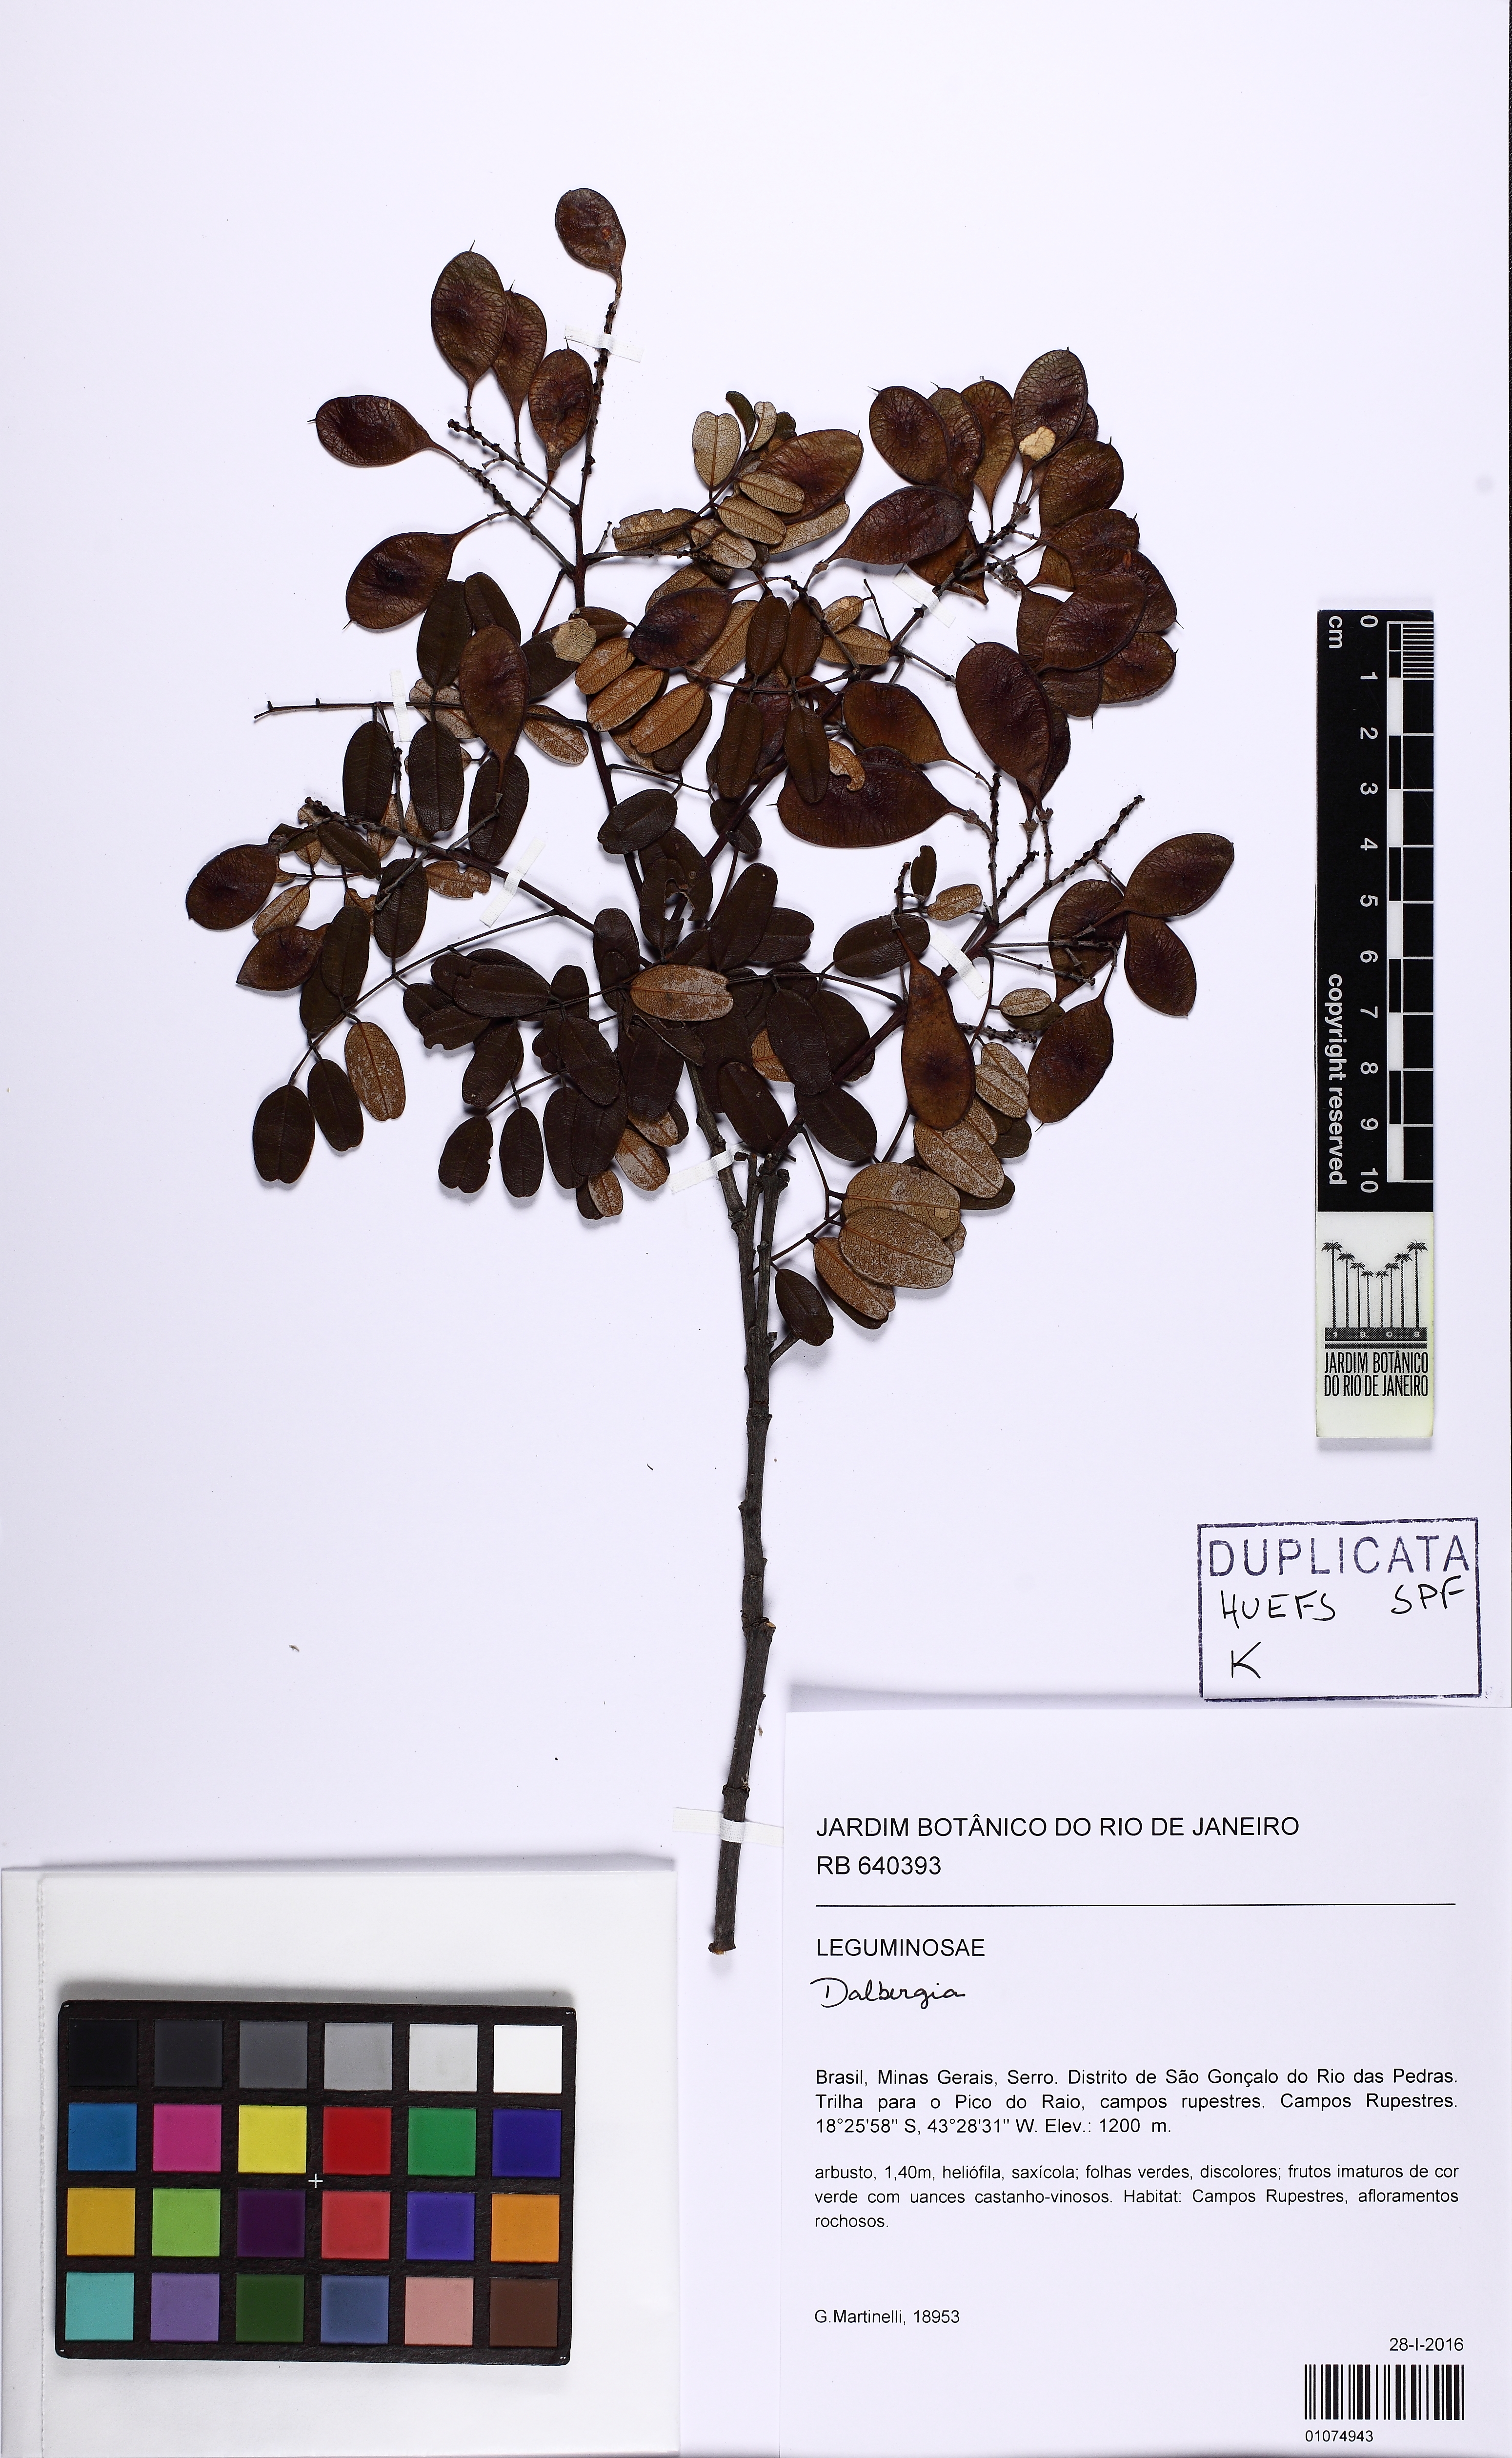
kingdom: Plantae
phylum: Tracheophyta
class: Magnoliopsida
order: Fabales
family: Fabaceae
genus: Leptolobium
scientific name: Leptolobium brachystachyum
